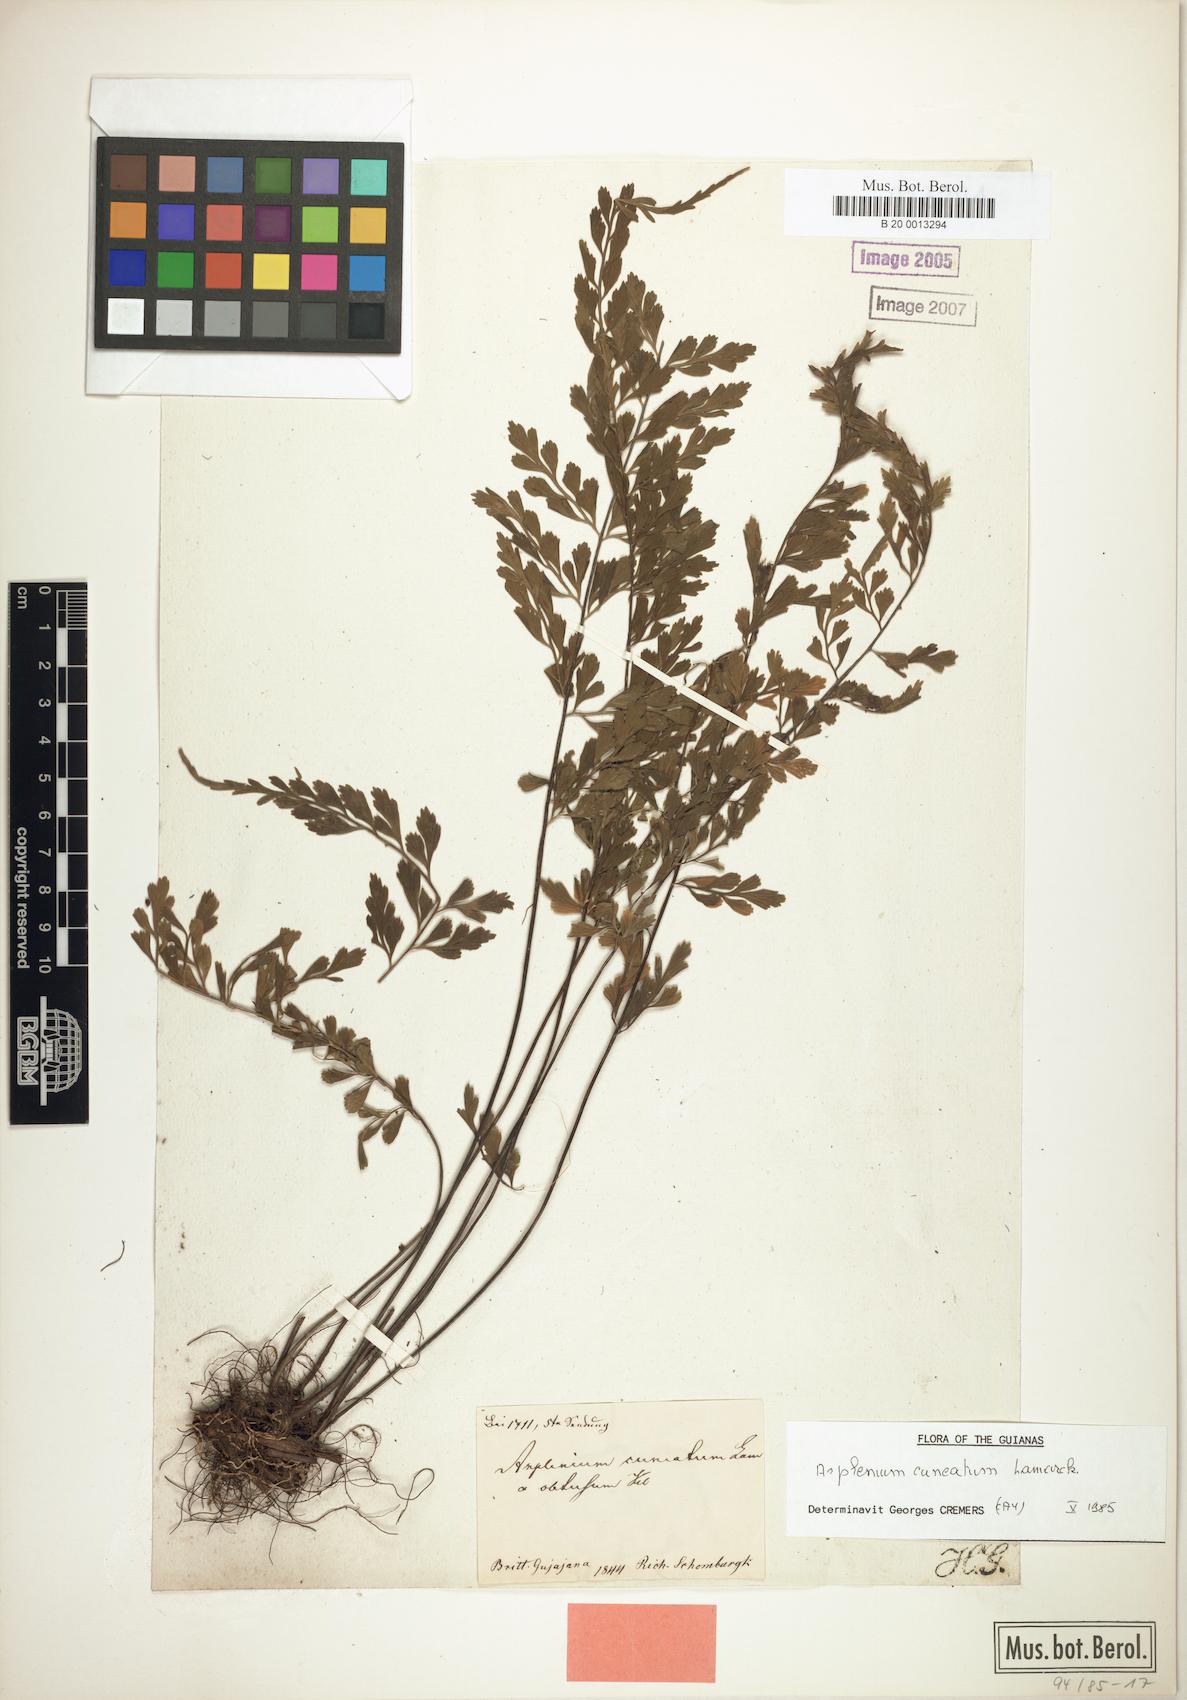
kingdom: Plantae
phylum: Tracheophyta
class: Polypodiopsida
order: Polypodiales
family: Aspleniaceae
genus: Asplenium
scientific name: Asplenium cuneatum
